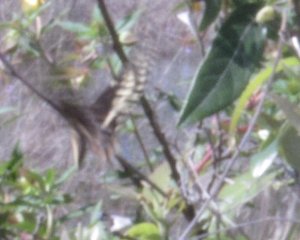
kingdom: Animalia
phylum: Arthropoda
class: Insecta
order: Lepidoptera
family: Papilionidae
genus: Pterourus
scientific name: Pterourus palamedes
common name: Palamedes Swallowtail
